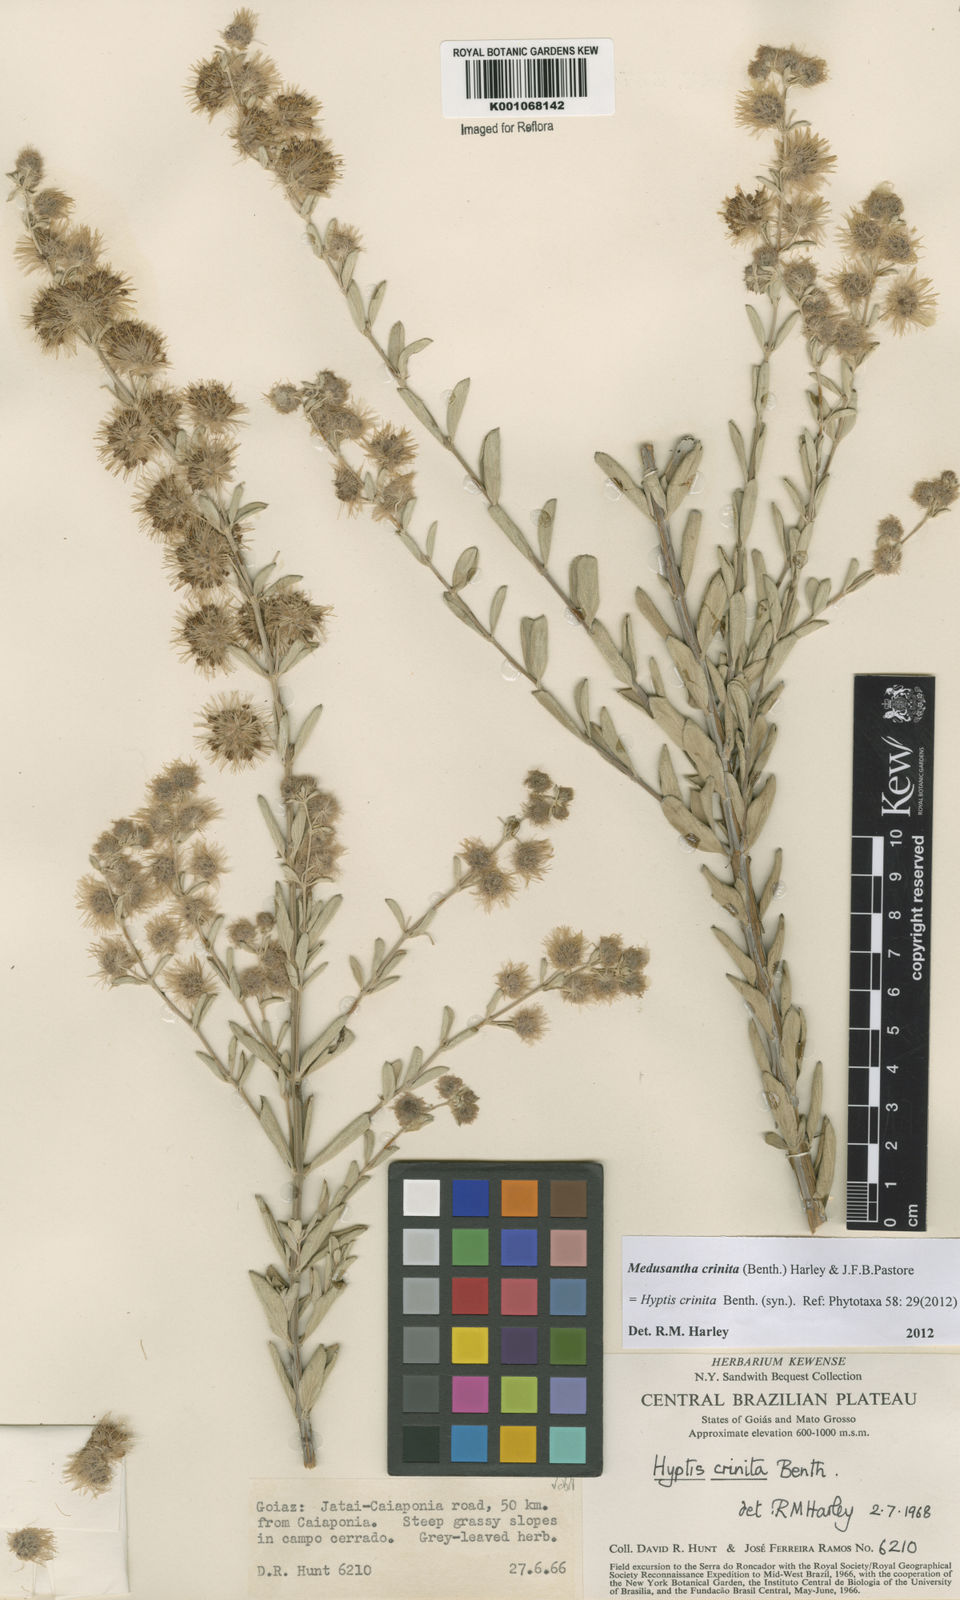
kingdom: Plantae
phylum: Tracheophyta
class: Magnoliopsida
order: Lamiales
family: Lamiaceae
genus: Medusantha
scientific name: Medusantha crinita
